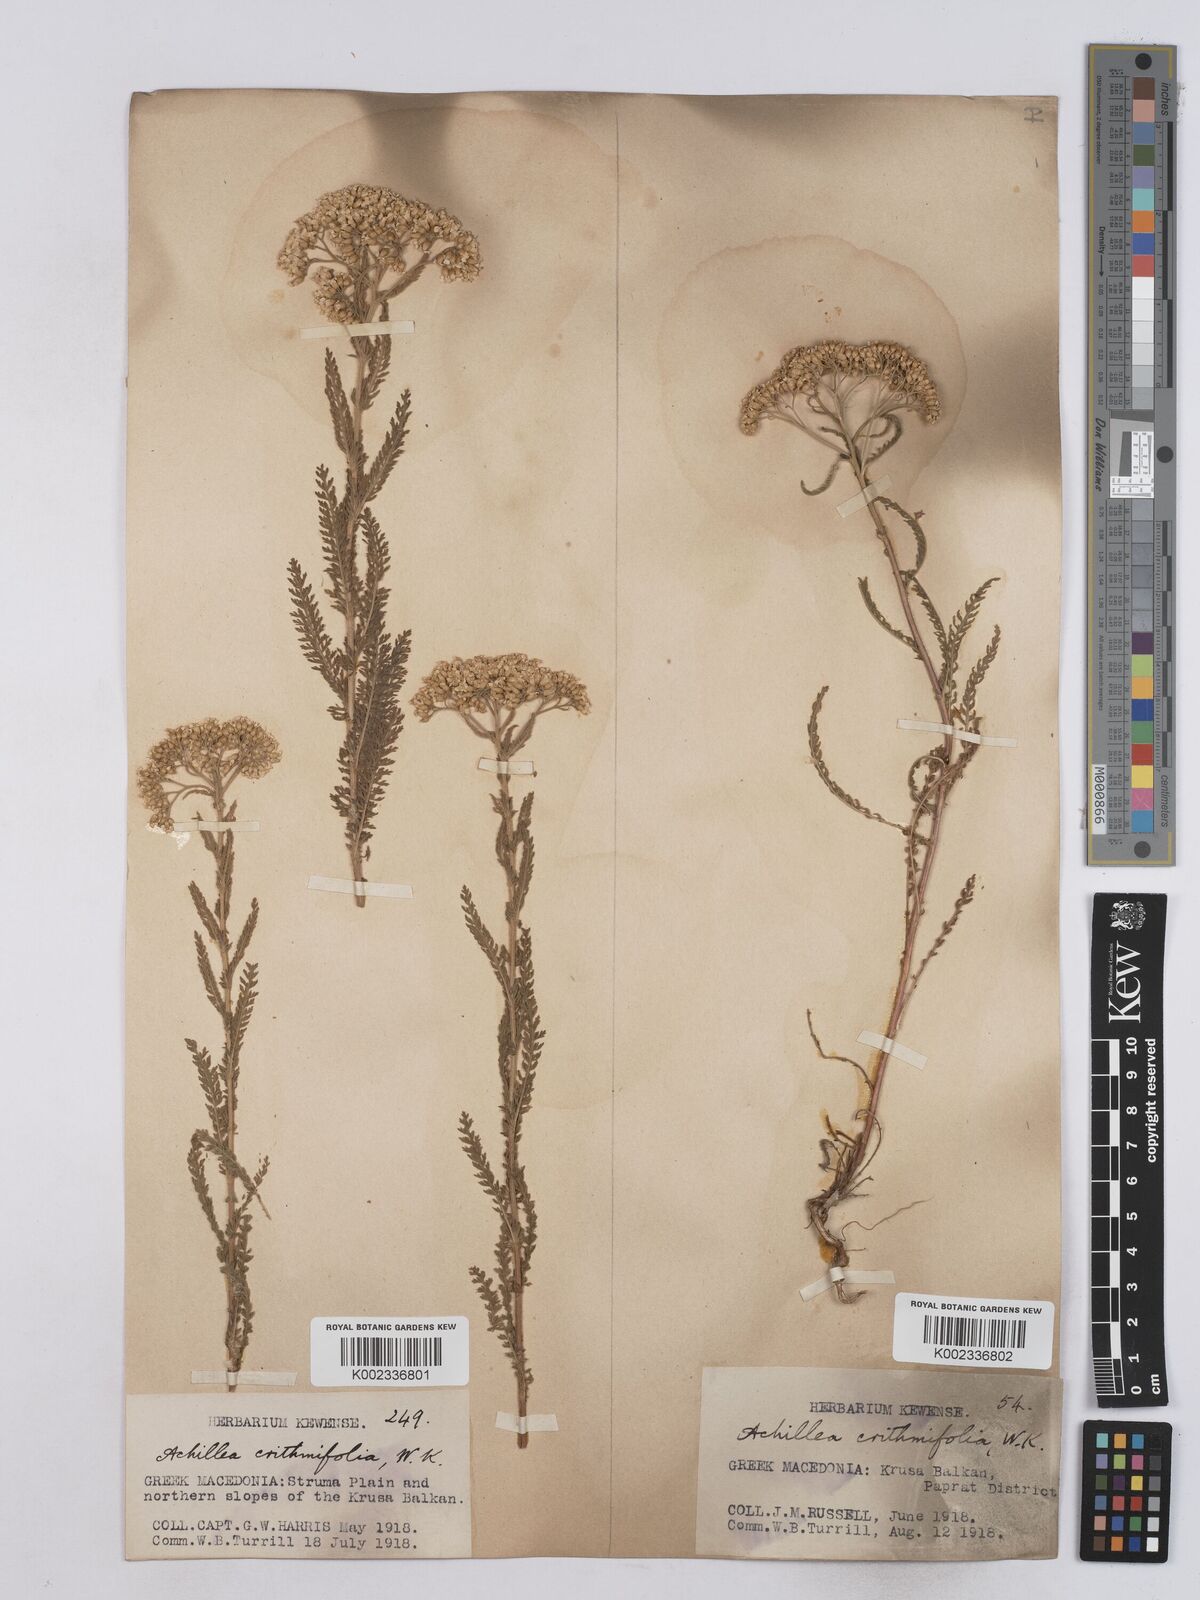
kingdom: Plantae
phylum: Tracheophyta
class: Magnoliopsida
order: Asterales
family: Asteraceae
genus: Achillea
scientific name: Achillea crithmifolia
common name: Yarrow
